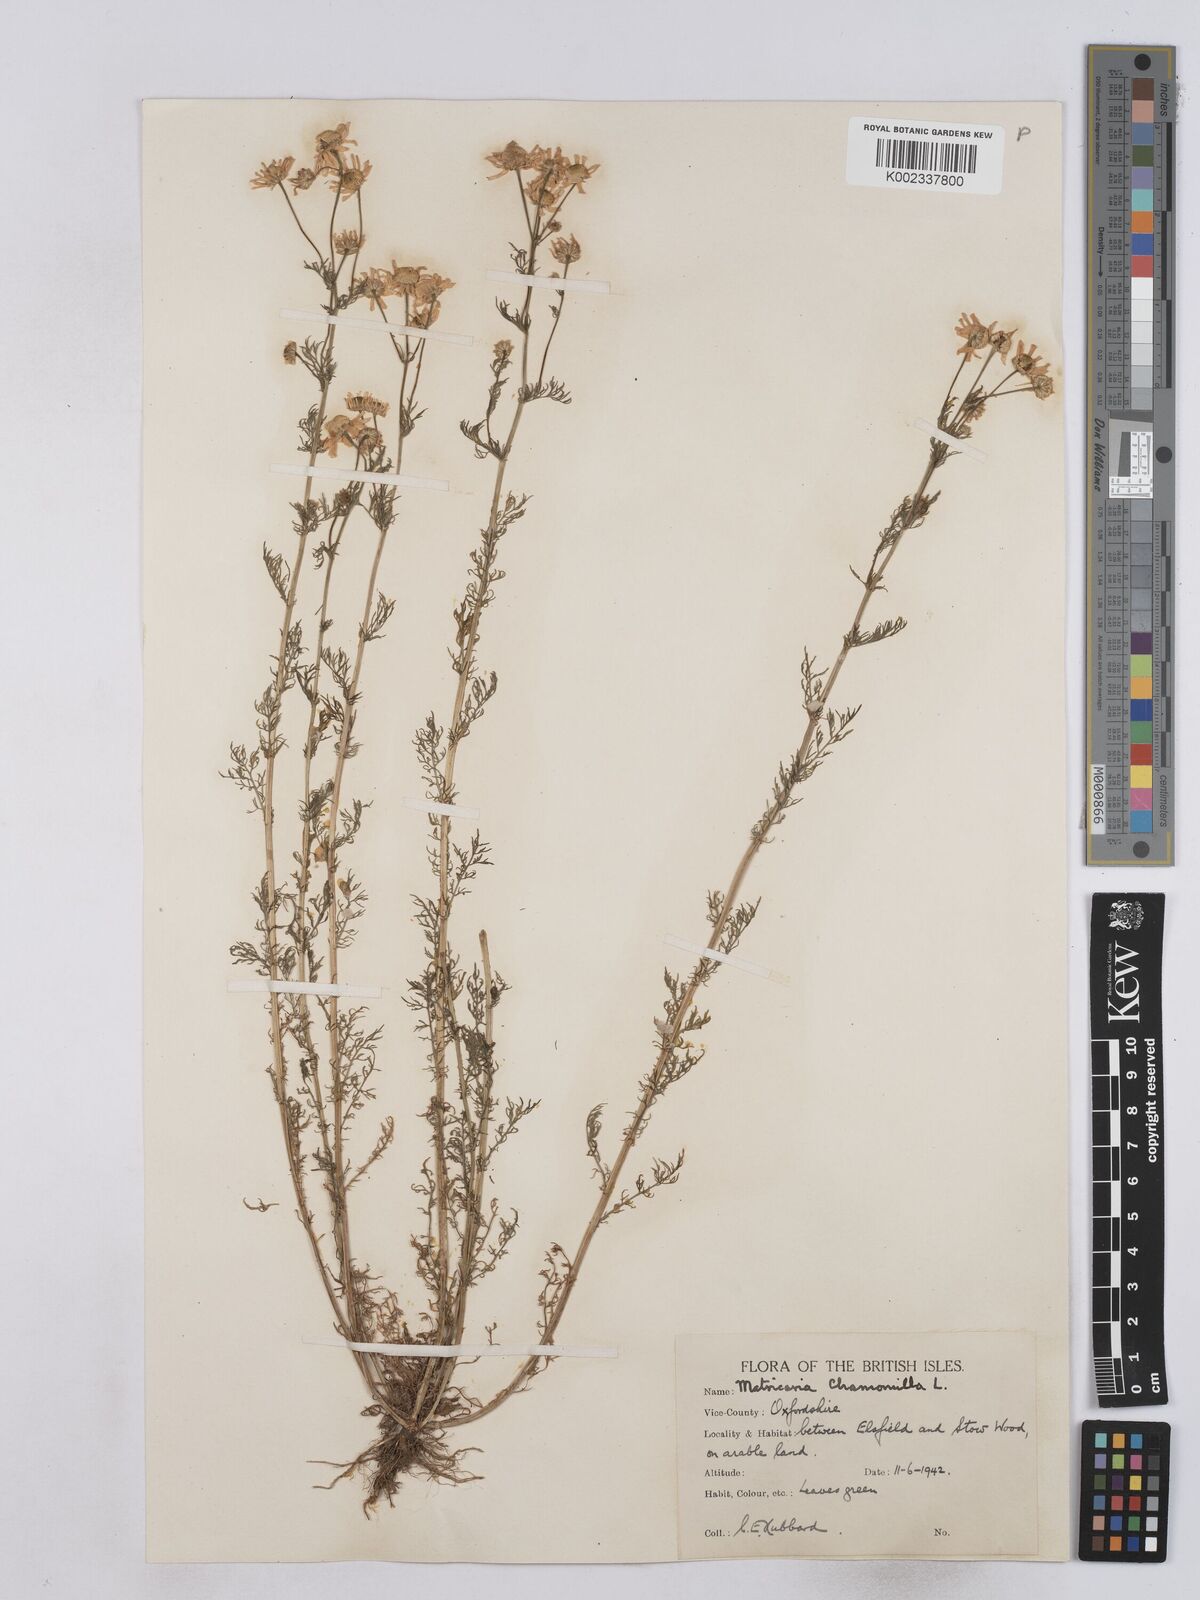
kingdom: Plantae
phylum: Tracheophyta
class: Magnoliopsida
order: Asterales
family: Asteraceae
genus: Matricaria
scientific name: Matricaria chamomilla
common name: Scented mayweed
